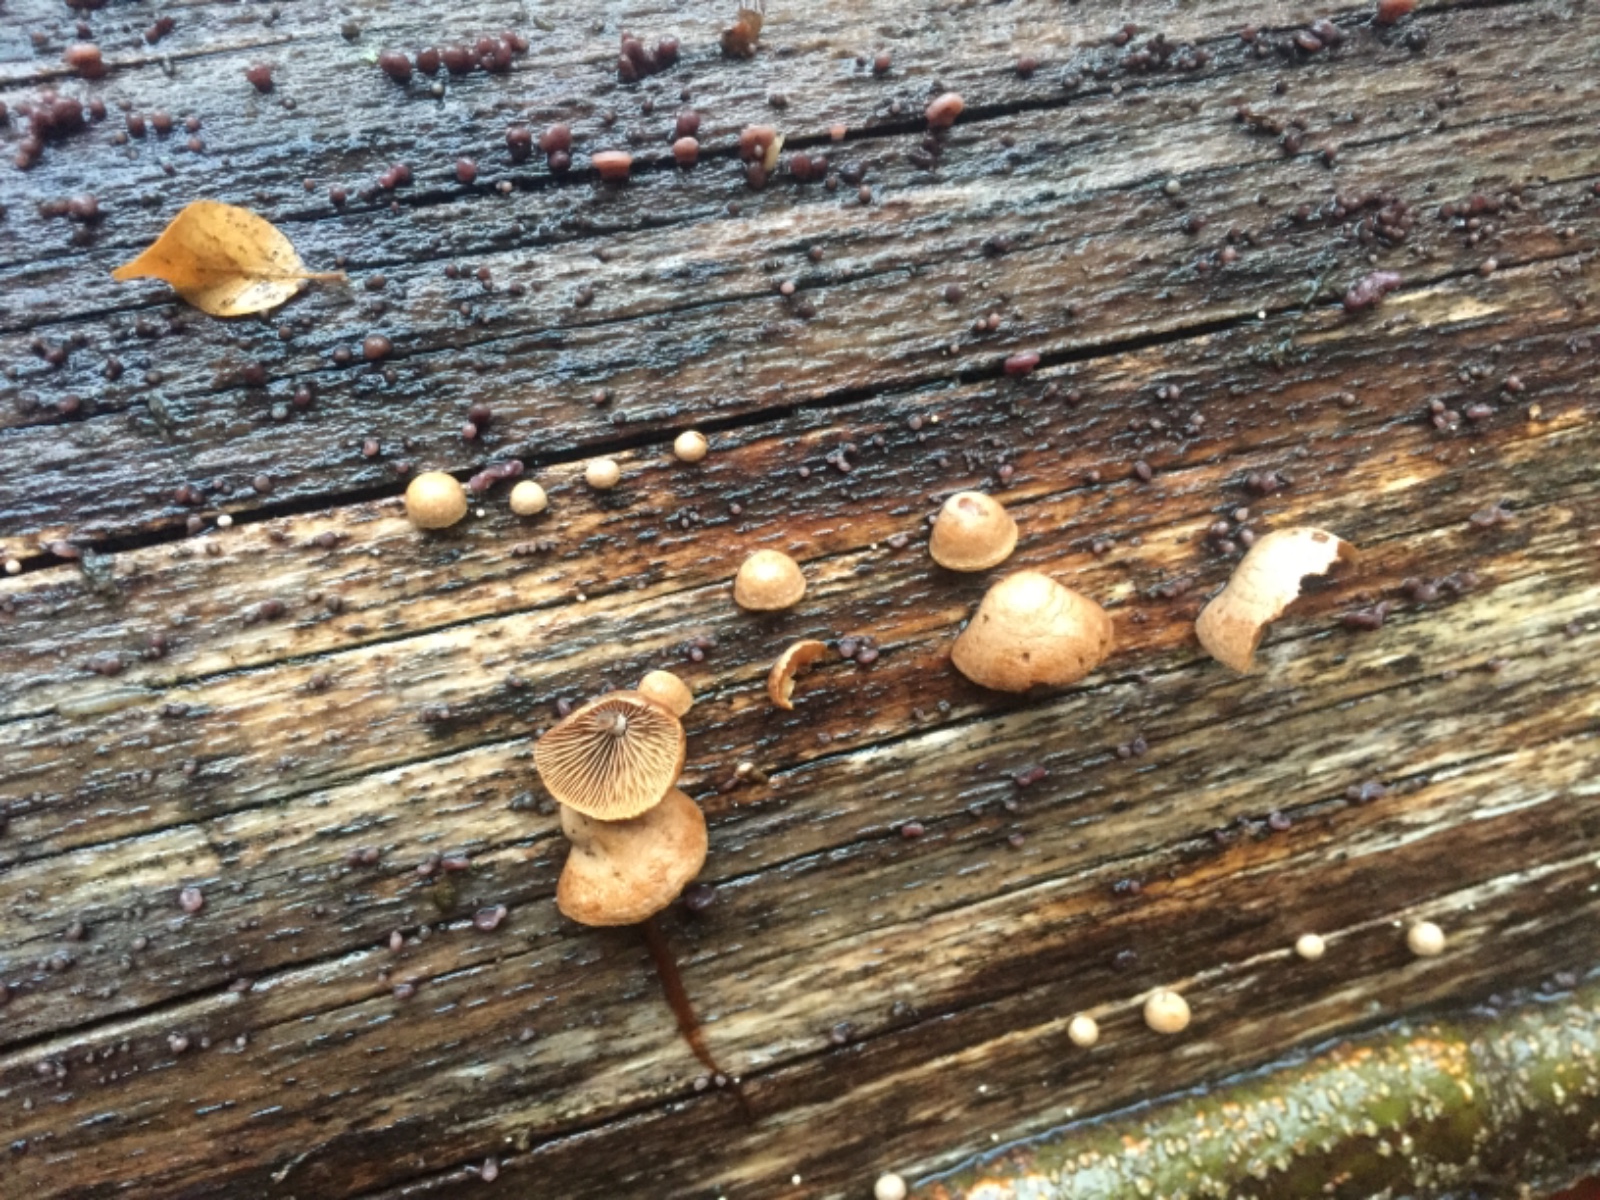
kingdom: Fungi
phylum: Basidiomycota
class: Agaricomycetes
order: Agaricales
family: Strophariaceae
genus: Deconica
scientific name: Deconica horizontalis
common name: ved-stråhat
